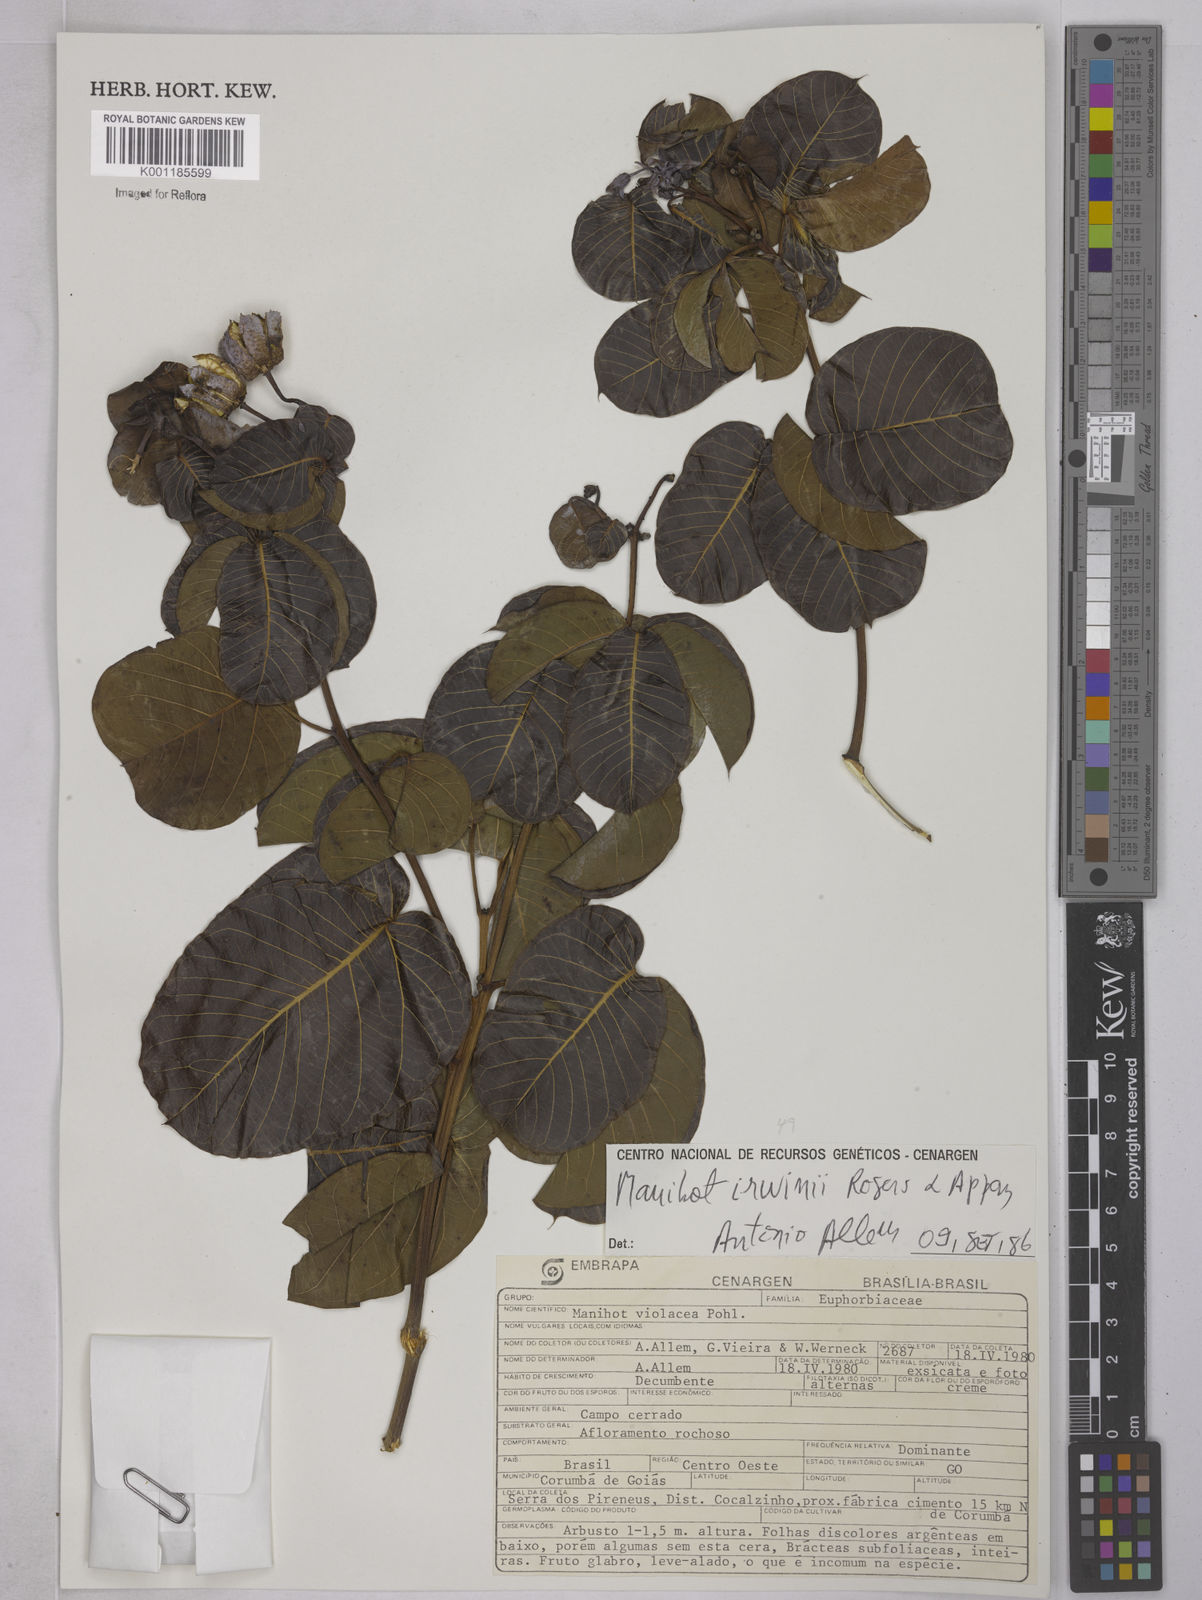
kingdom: Plantae
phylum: Tracheophyta
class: Magnoliopsida
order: Malpighiales
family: Euphorbiaceae
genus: Manihot
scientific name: Manihot irwinii
